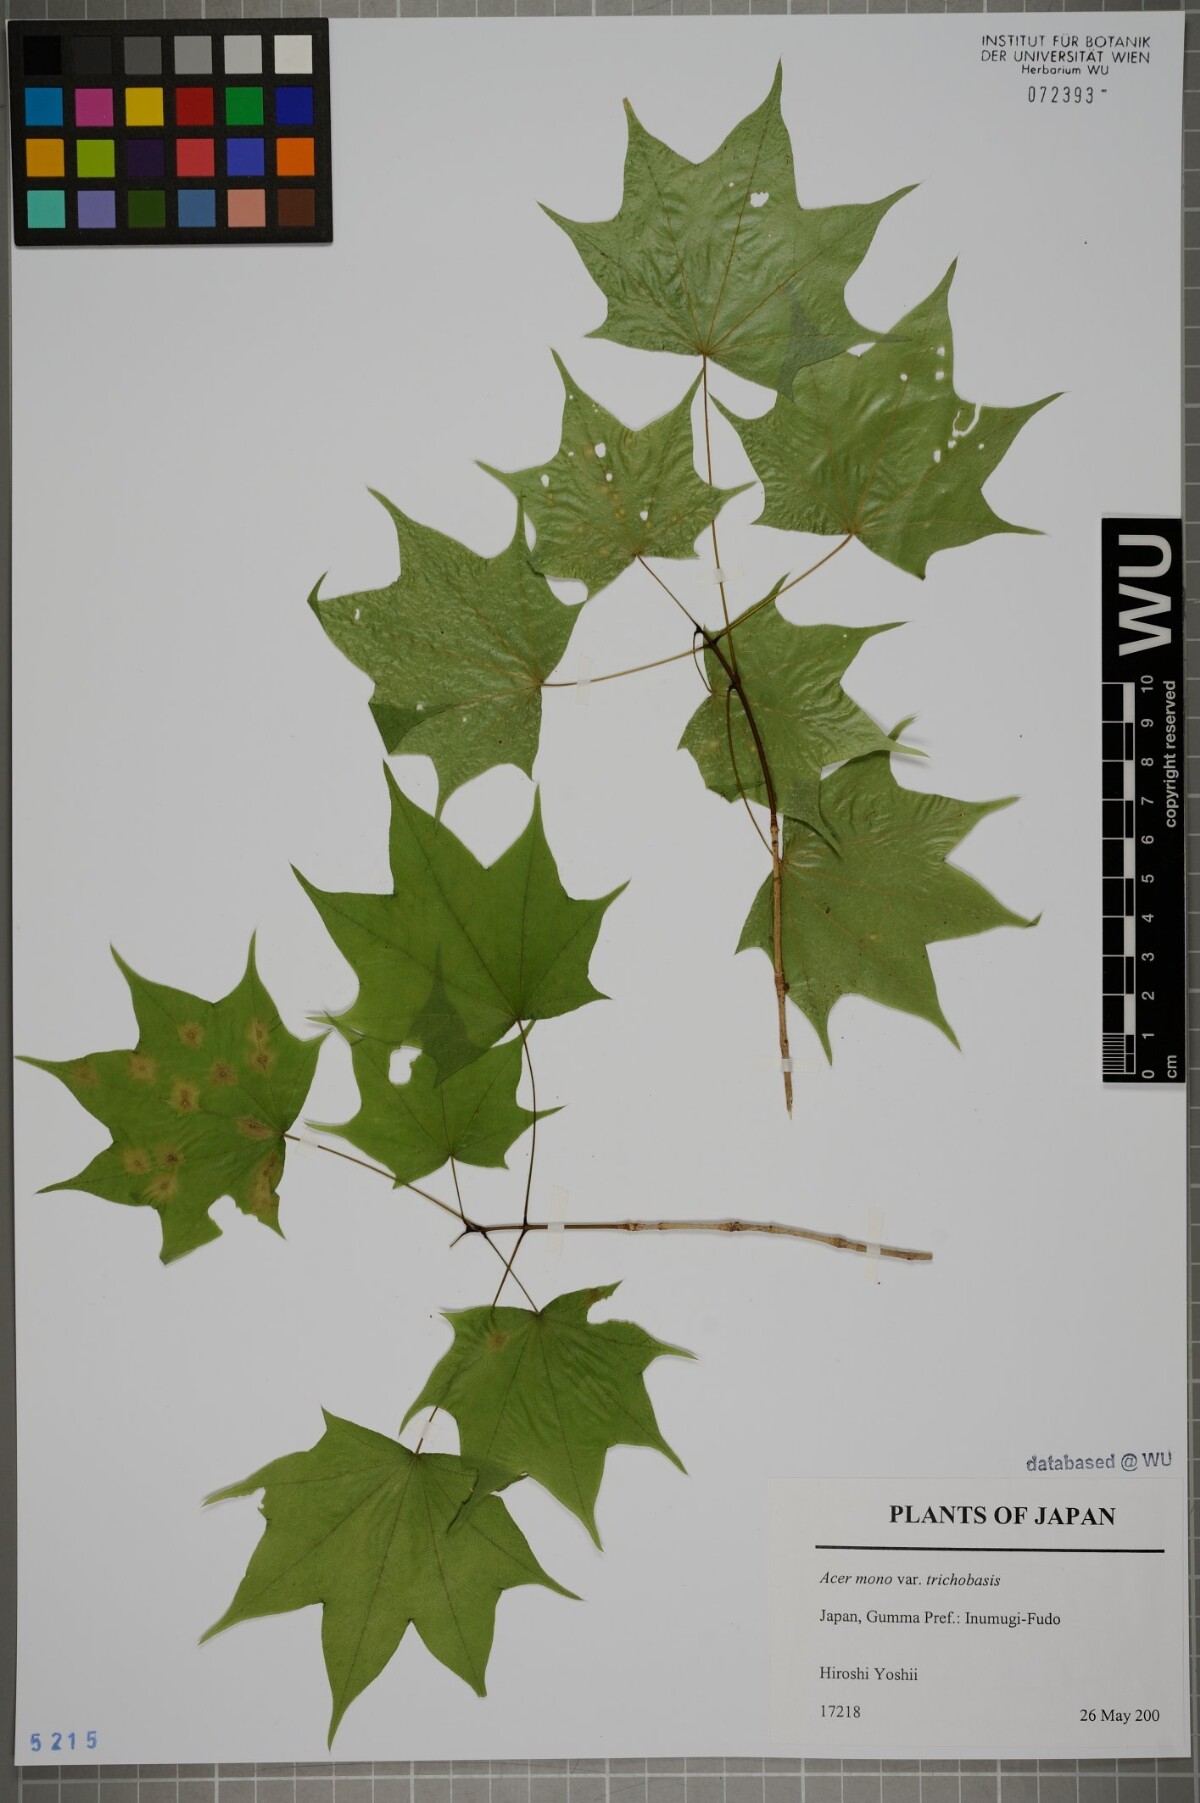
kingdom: Plantae
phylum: Tracheophyta
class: Magnoliopsida
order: Sapindales
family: Sapindaceae
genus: Acer
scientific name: Acer pictum
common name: The painted maple
